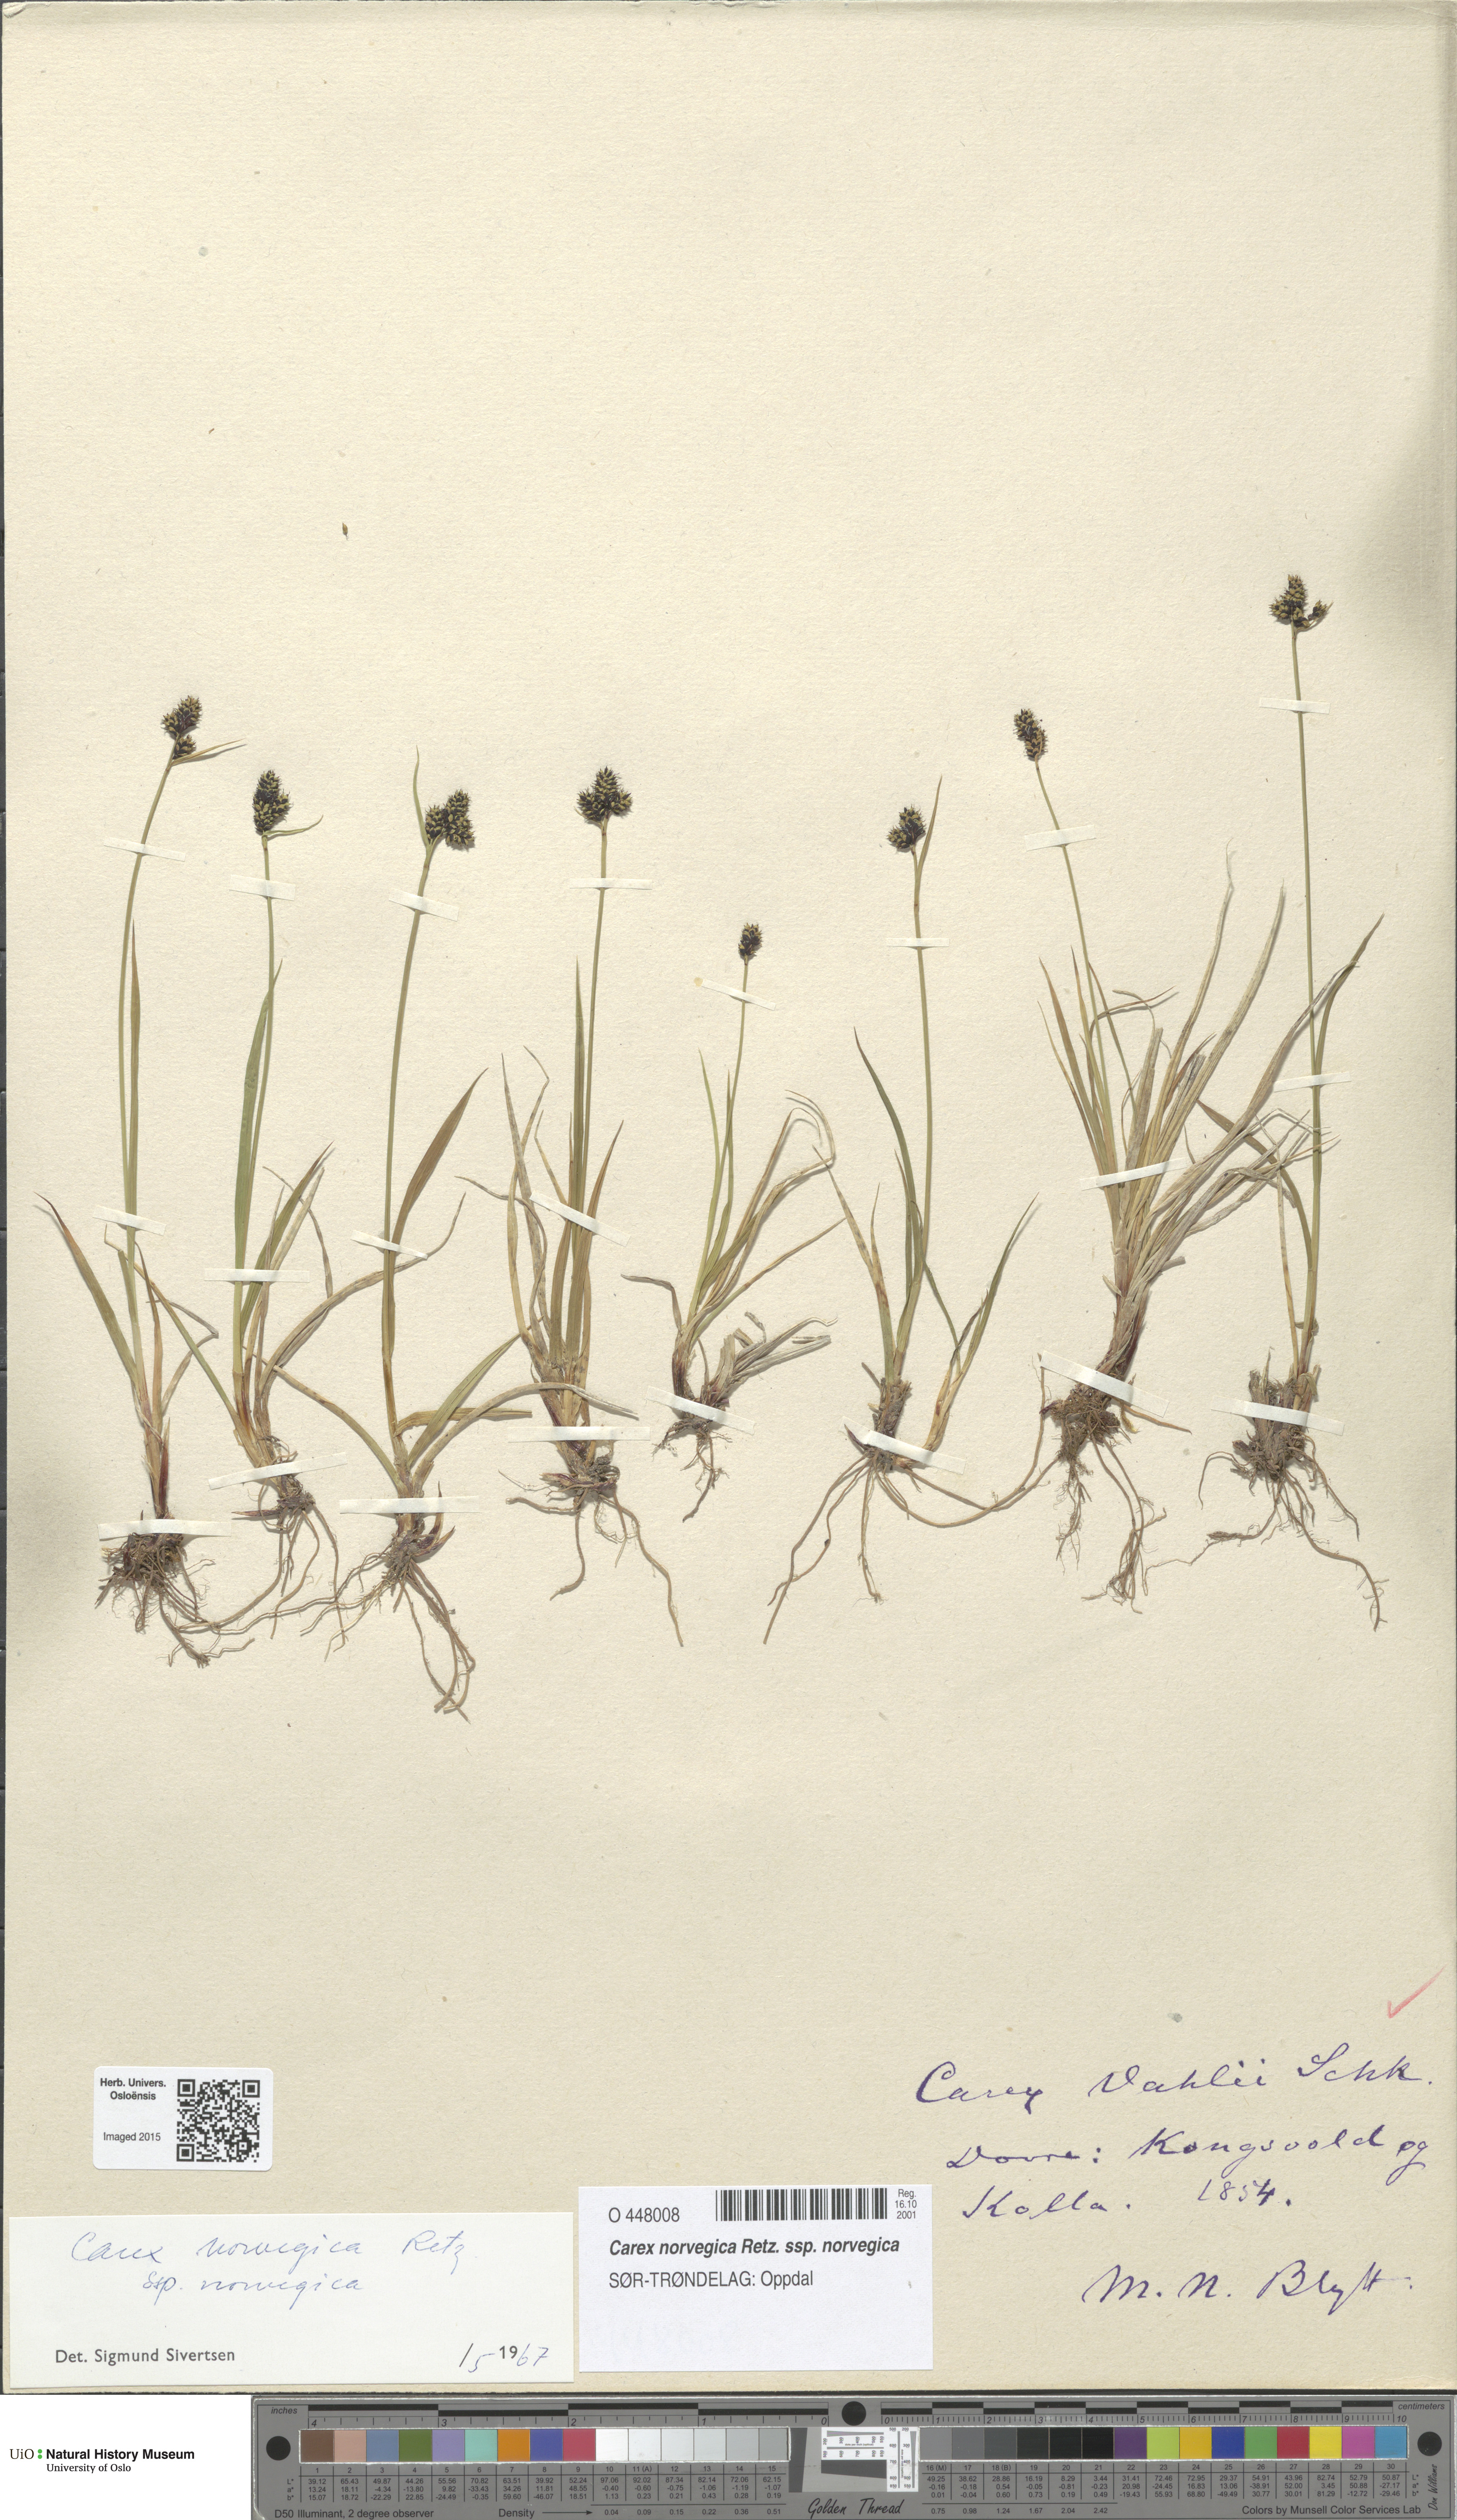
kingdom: Plantae
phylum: Tracheophyta
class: Liliopsida
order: Poales
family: Cyperaceae
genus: Carex
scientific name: Carex norvegica
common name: Close-headed alpine-sedge
